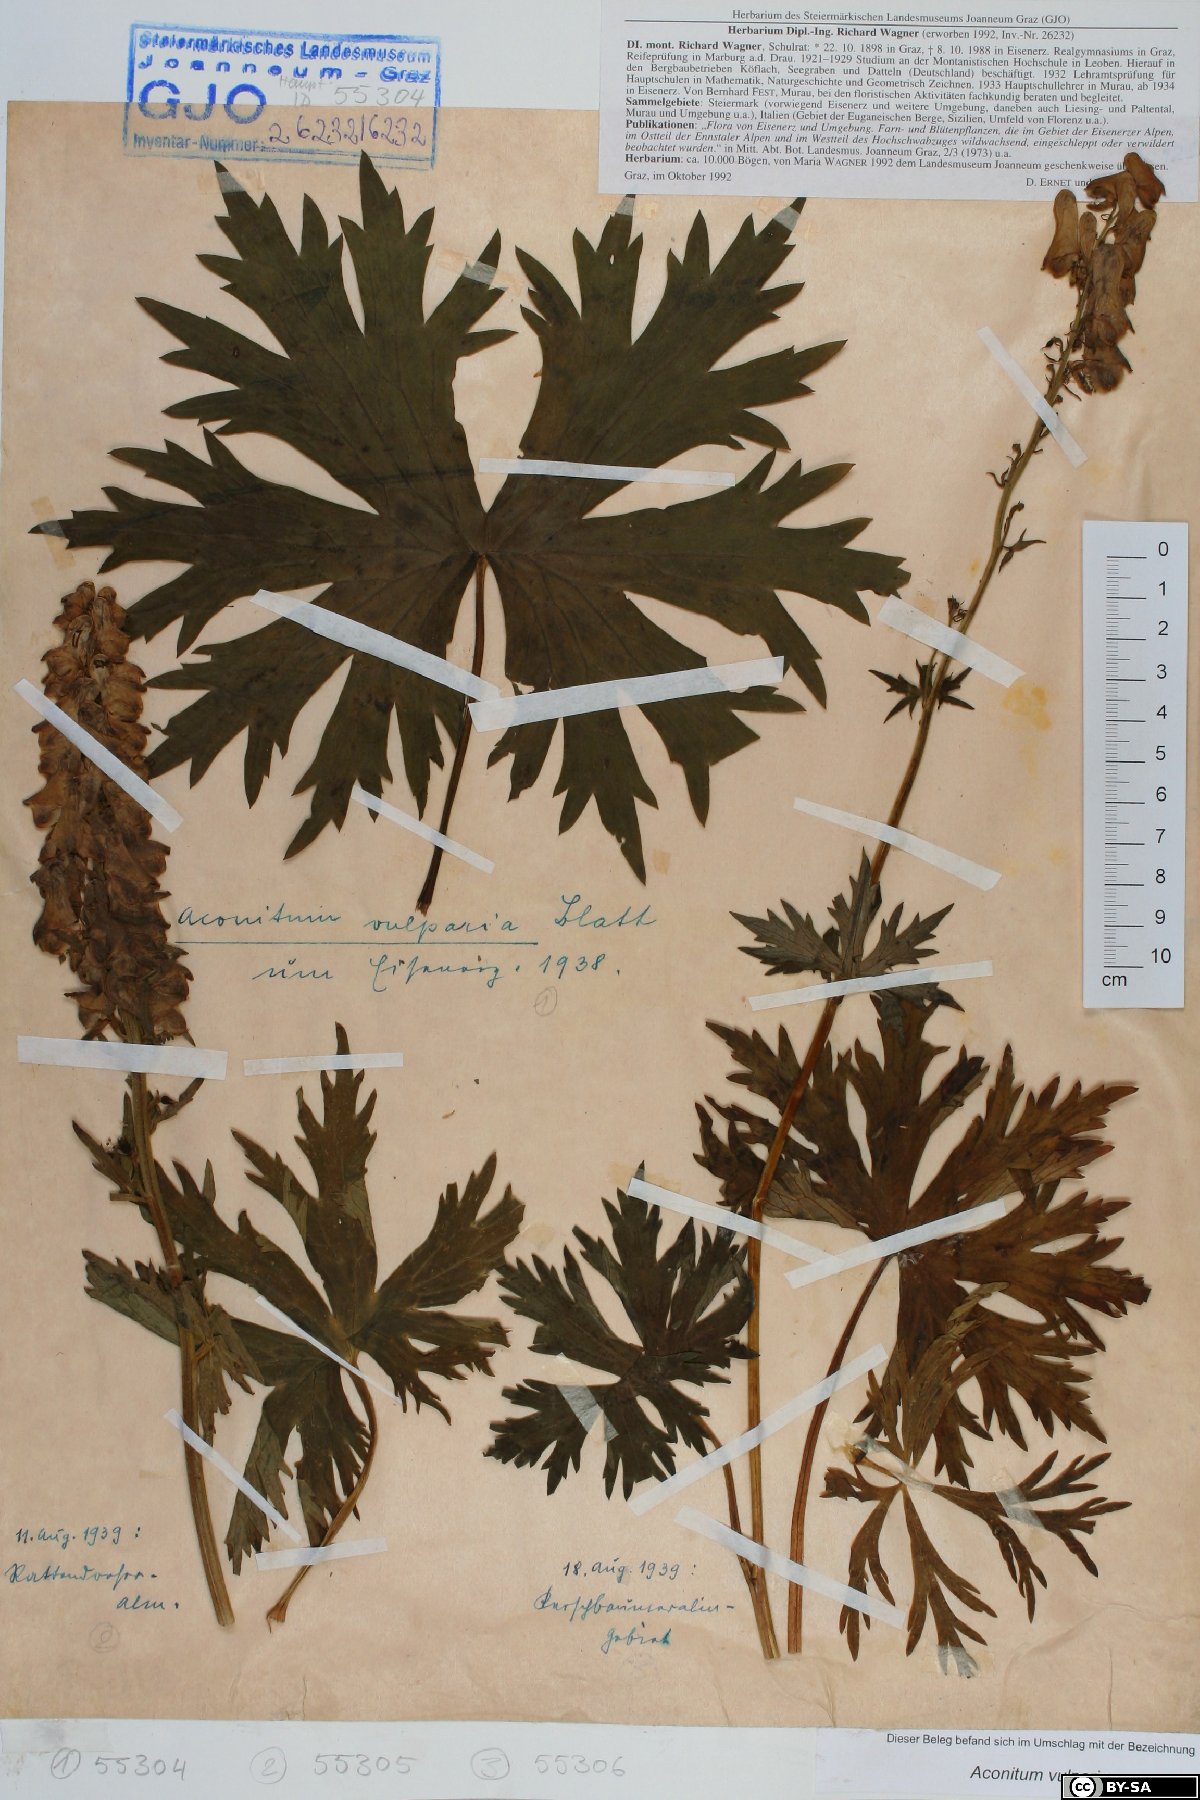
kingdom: Plantae
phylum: Tracheophyta
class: Magnoliopsida
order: Ranunculales
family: Ranunculaceae
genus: Aconitum
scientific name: Aconitum lycoctonum
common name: Wolf's-bane
